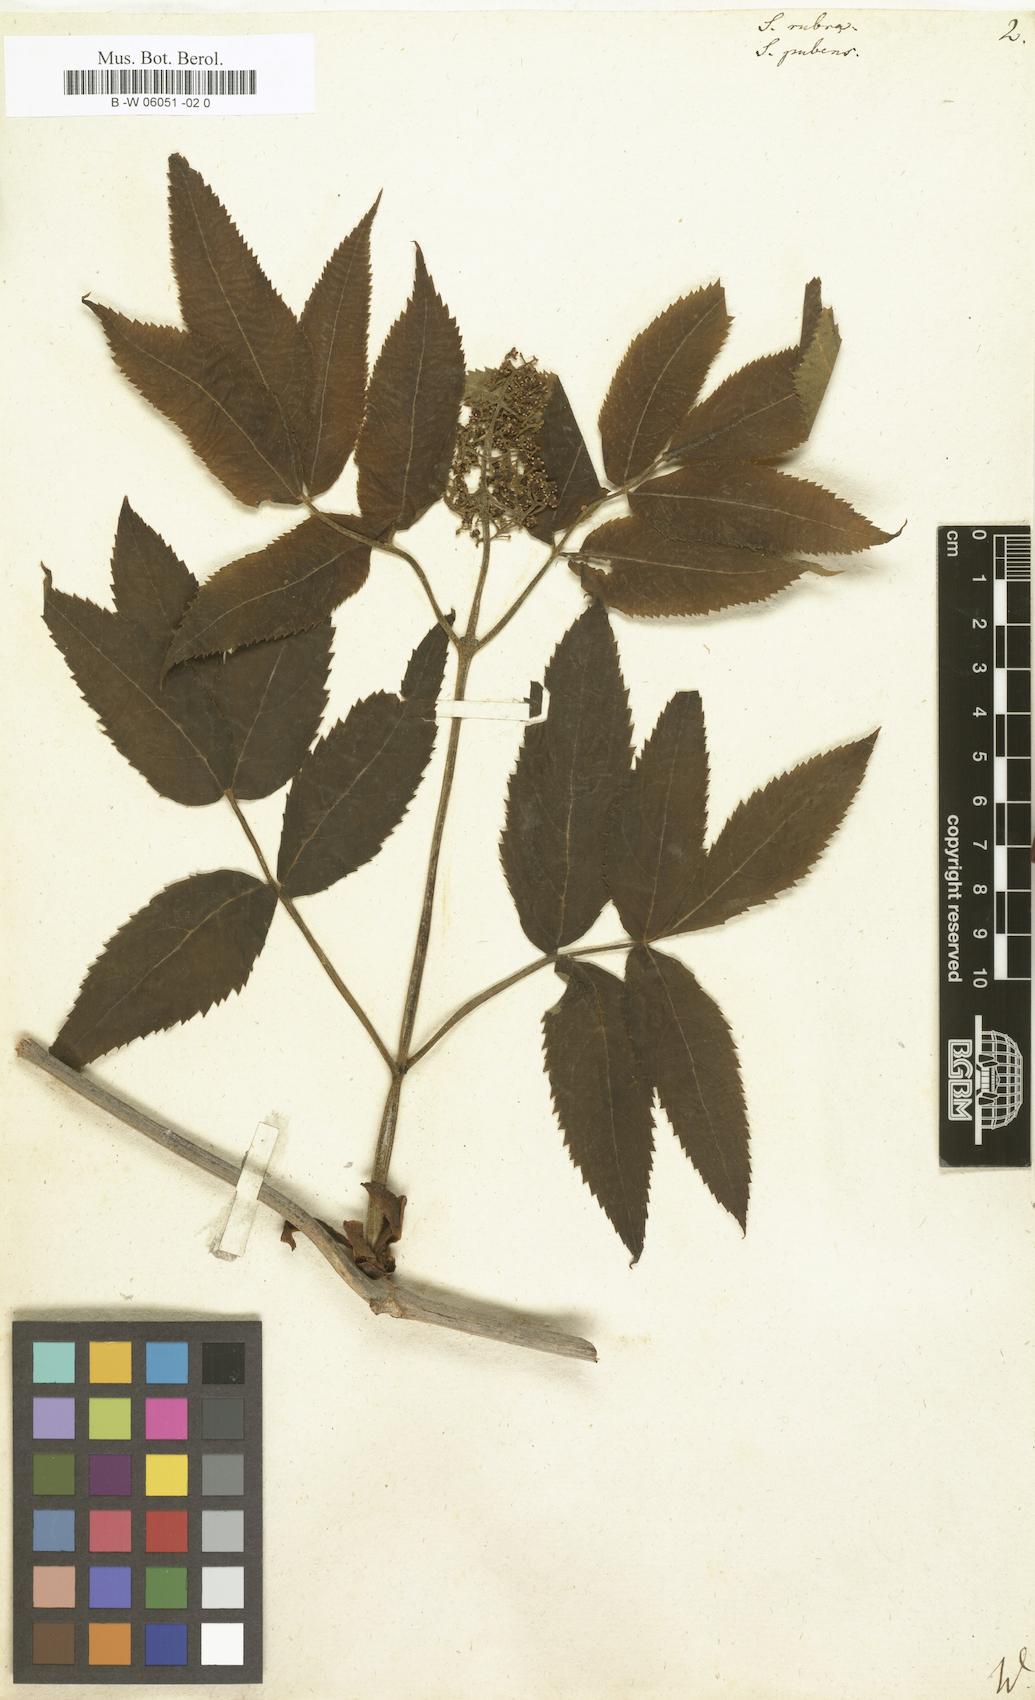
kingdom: Plantae
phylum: Tracheophyta
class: Magnoliopsida
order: Dipsacales
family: Viburnaceae
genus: Sambucus
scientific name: Sambucus javanica
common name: Chinese elder
